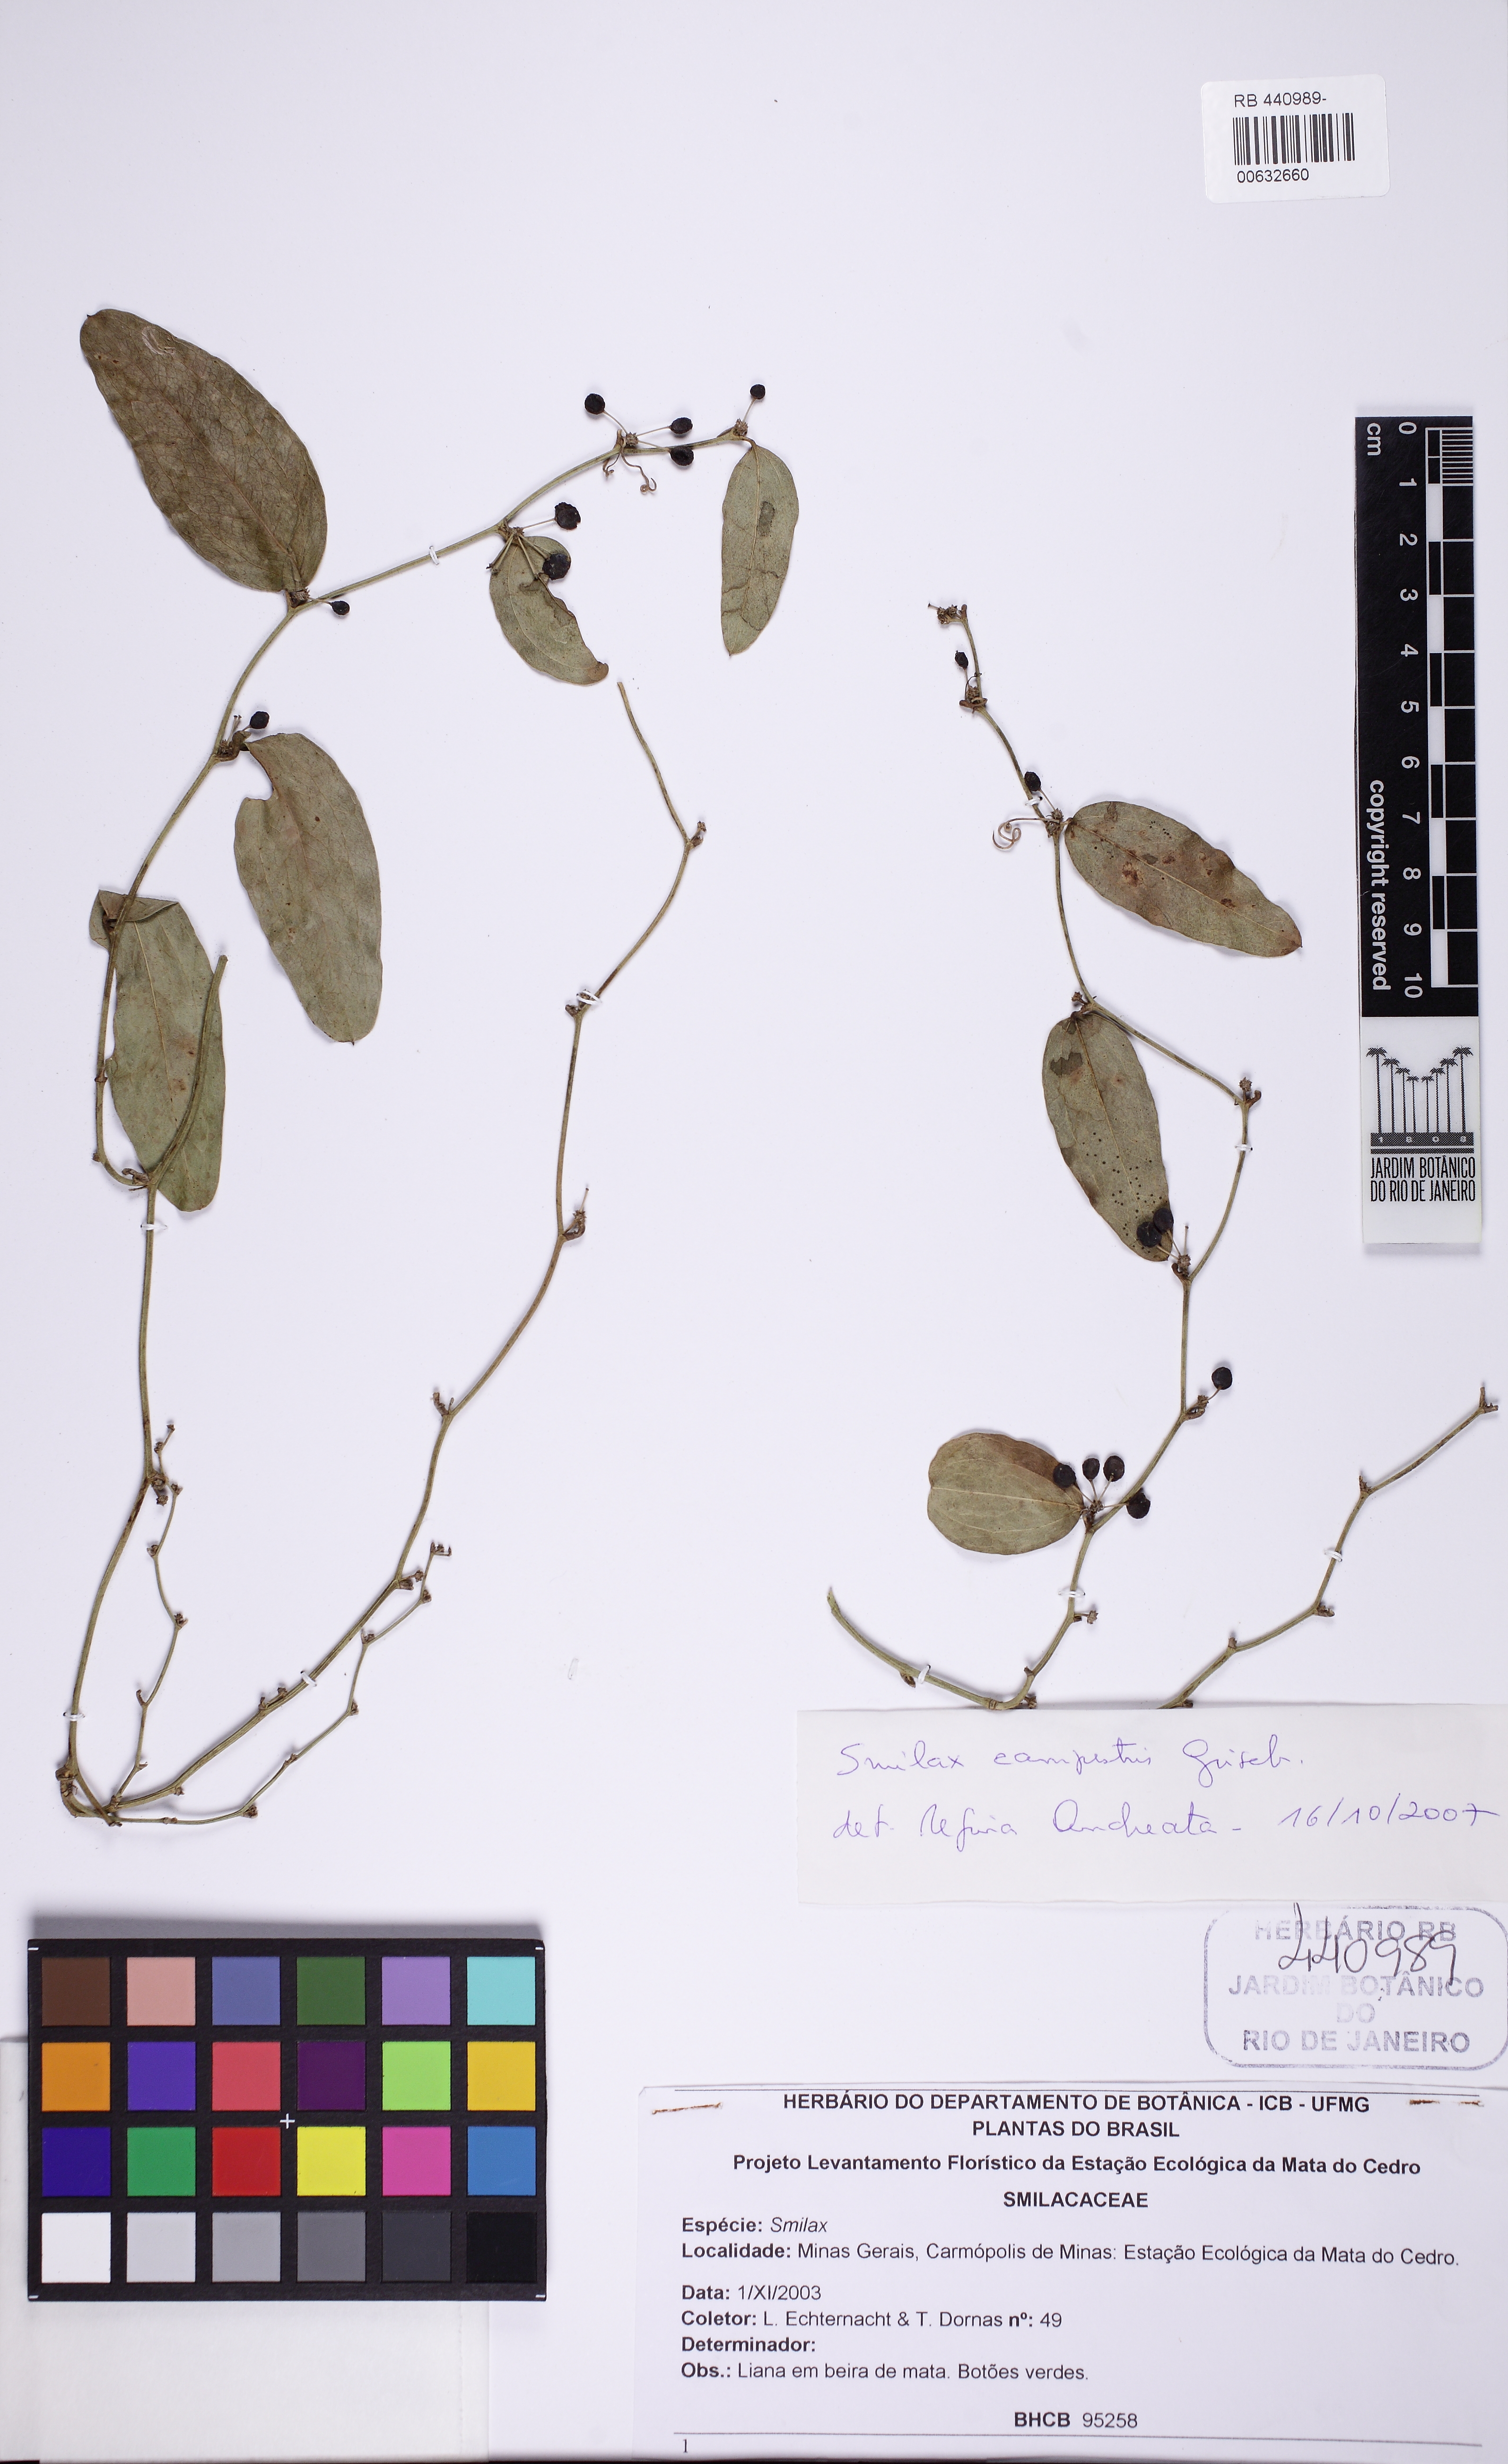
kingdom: Plantae
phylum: Tracheophyta
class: Liliopsida
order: Liliales
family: Smilacaceae
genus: Smilax
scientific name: Smilax campestris
